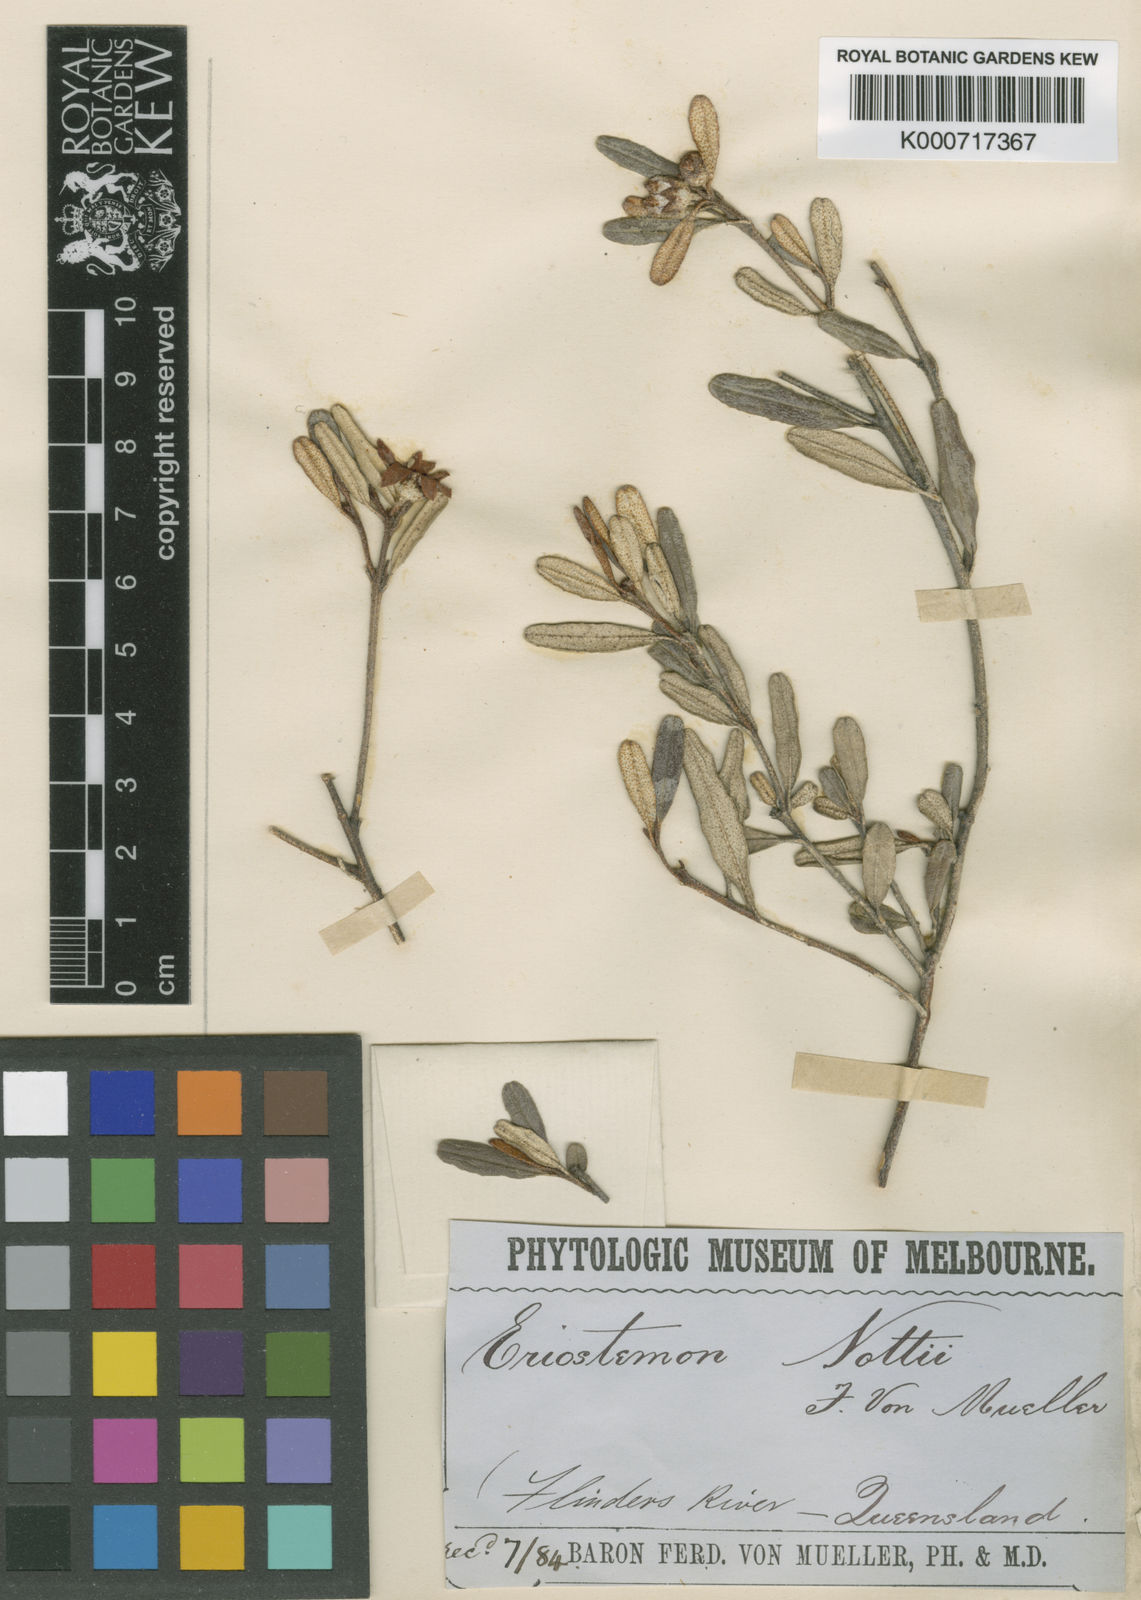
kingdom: Plantae
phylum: Tracheophyta
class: Magnoliopsida
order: Sapindales
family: Rutaceae
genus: Phebalium
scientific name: Phebalium nottii
